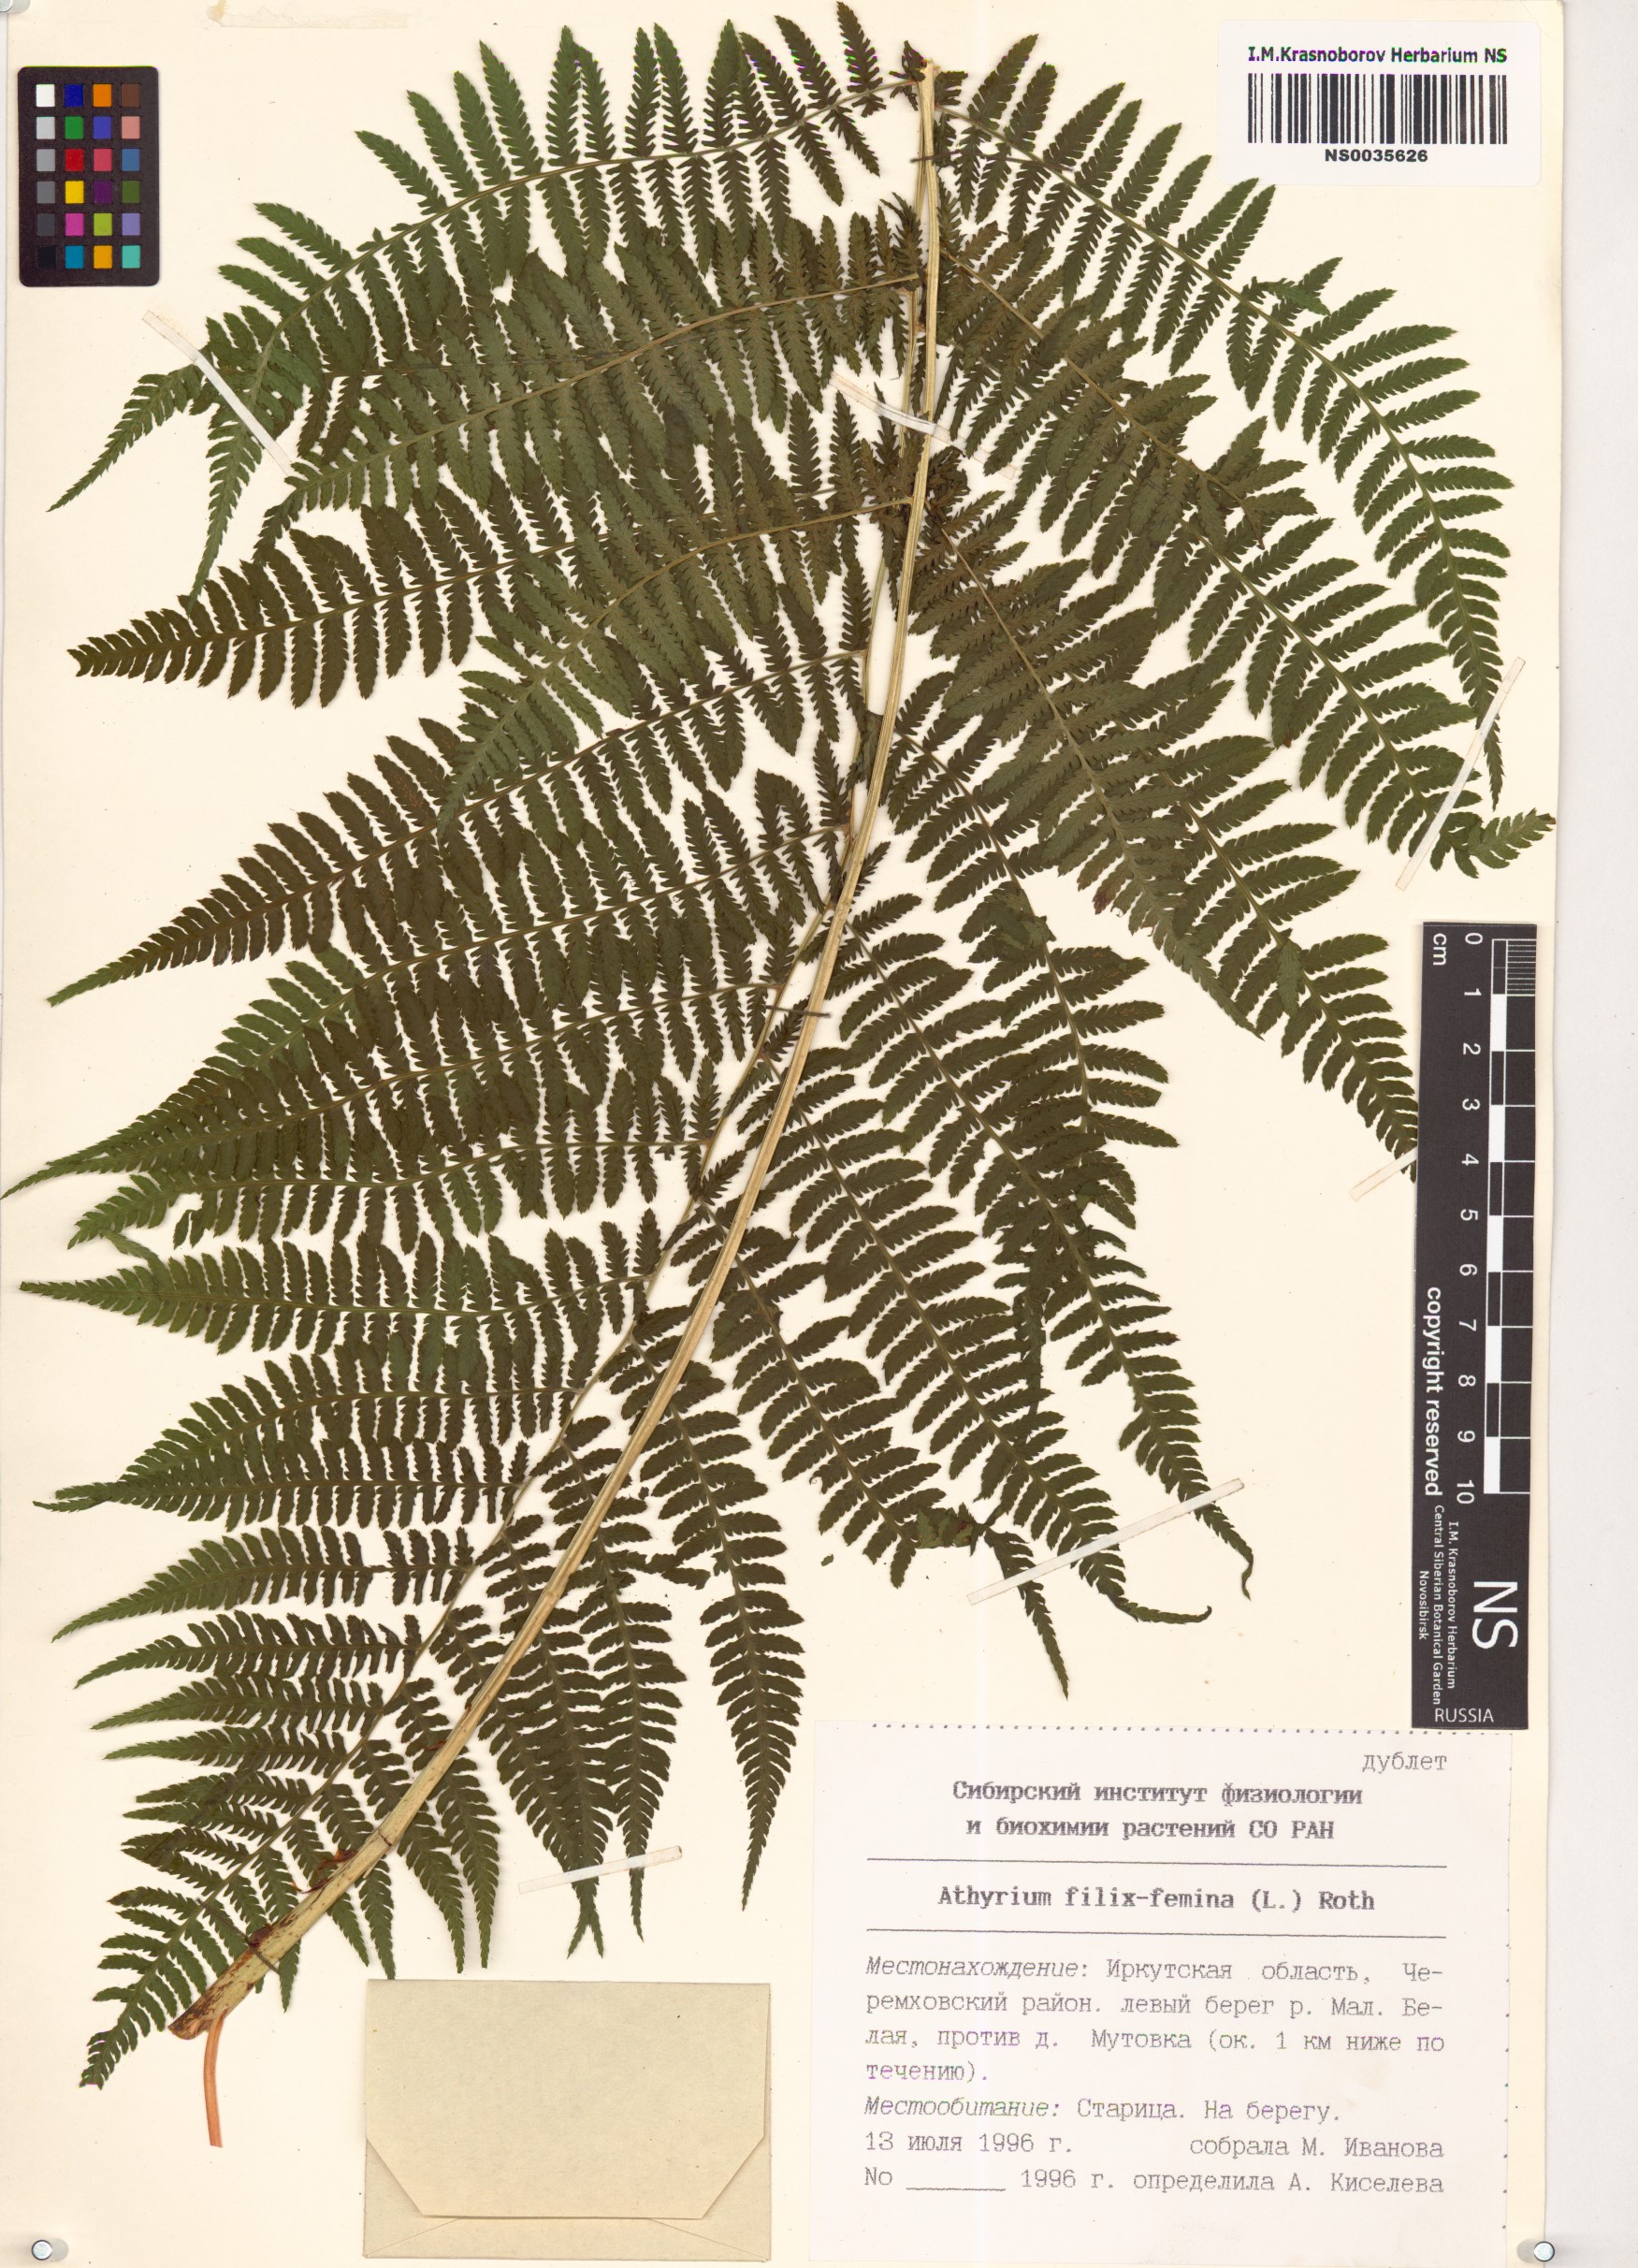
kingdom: Plantae
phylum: Tracheophyta
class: Polypodiopsida
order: Polypodiales
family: Athyriaceae
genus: Athyrium
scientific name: Athyrium filix-femina
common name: Lady fern
